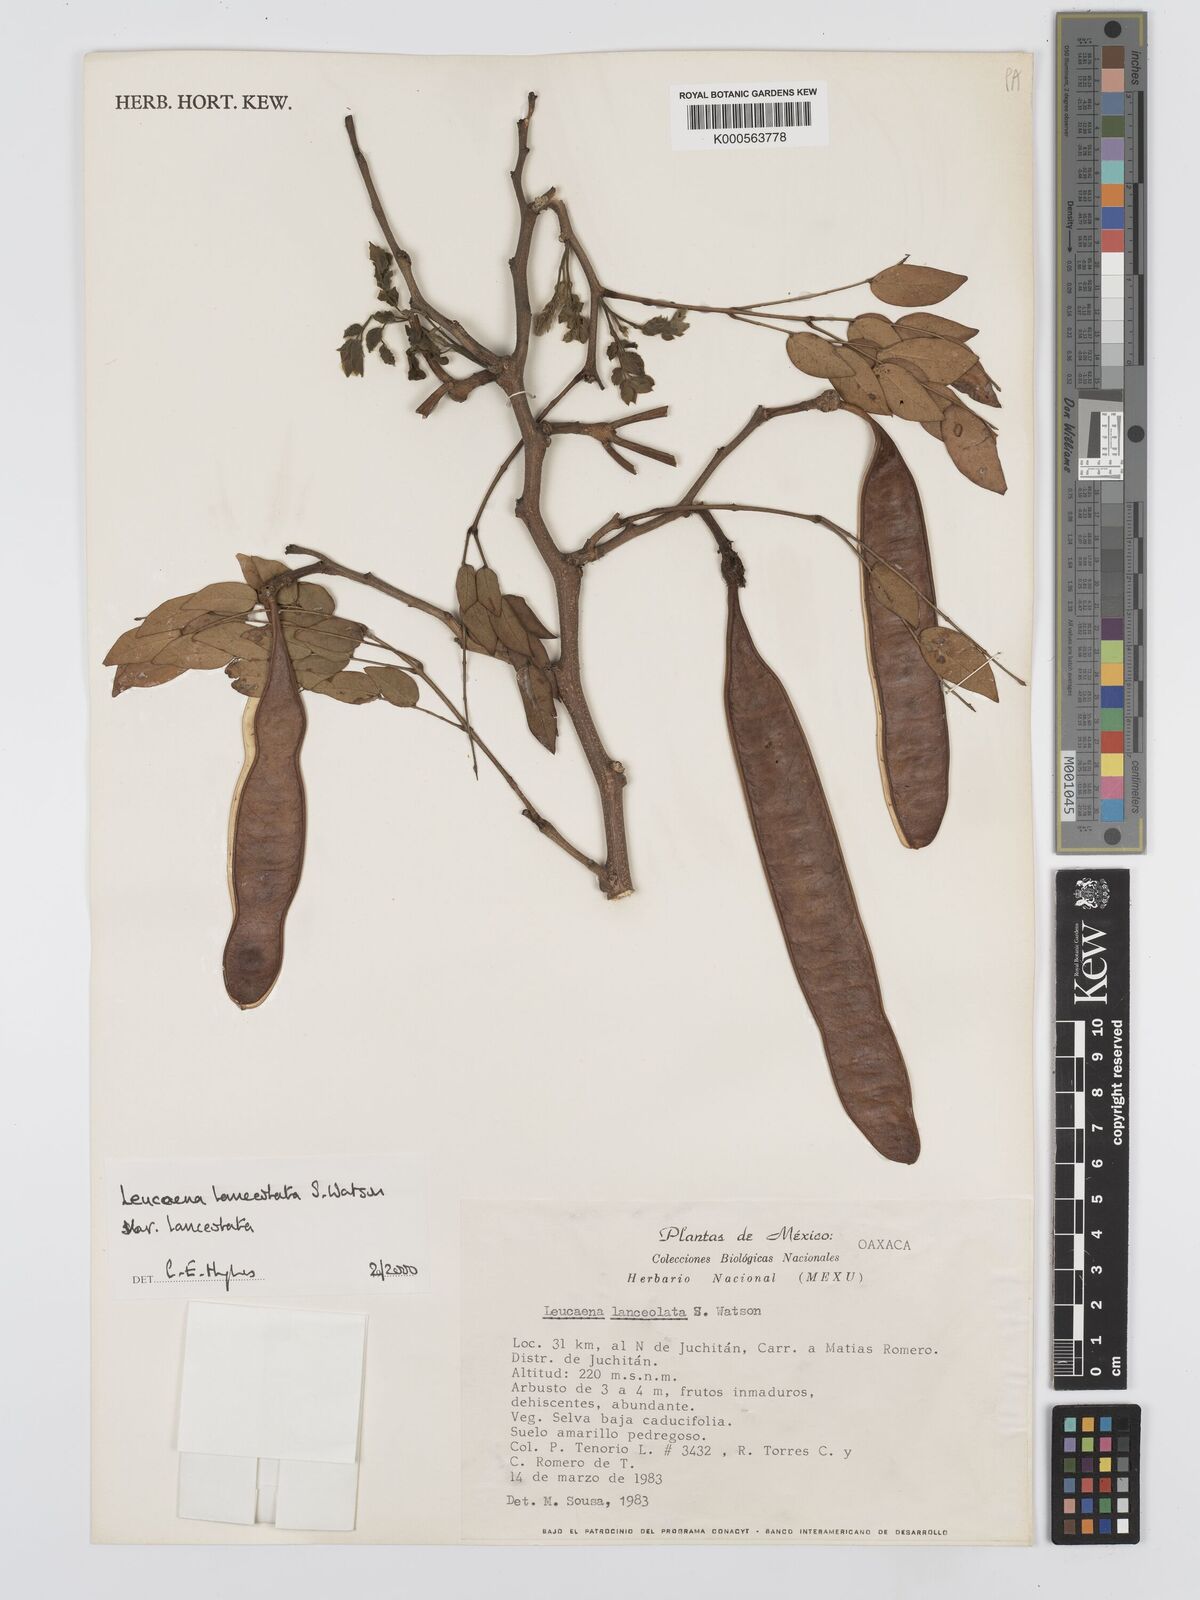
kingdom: Plantae
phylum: Tracheophyta
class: Magnoliopsida
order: Fabales
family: Fabaceae
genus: Leucaena
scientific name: Leucaena lanceolata
